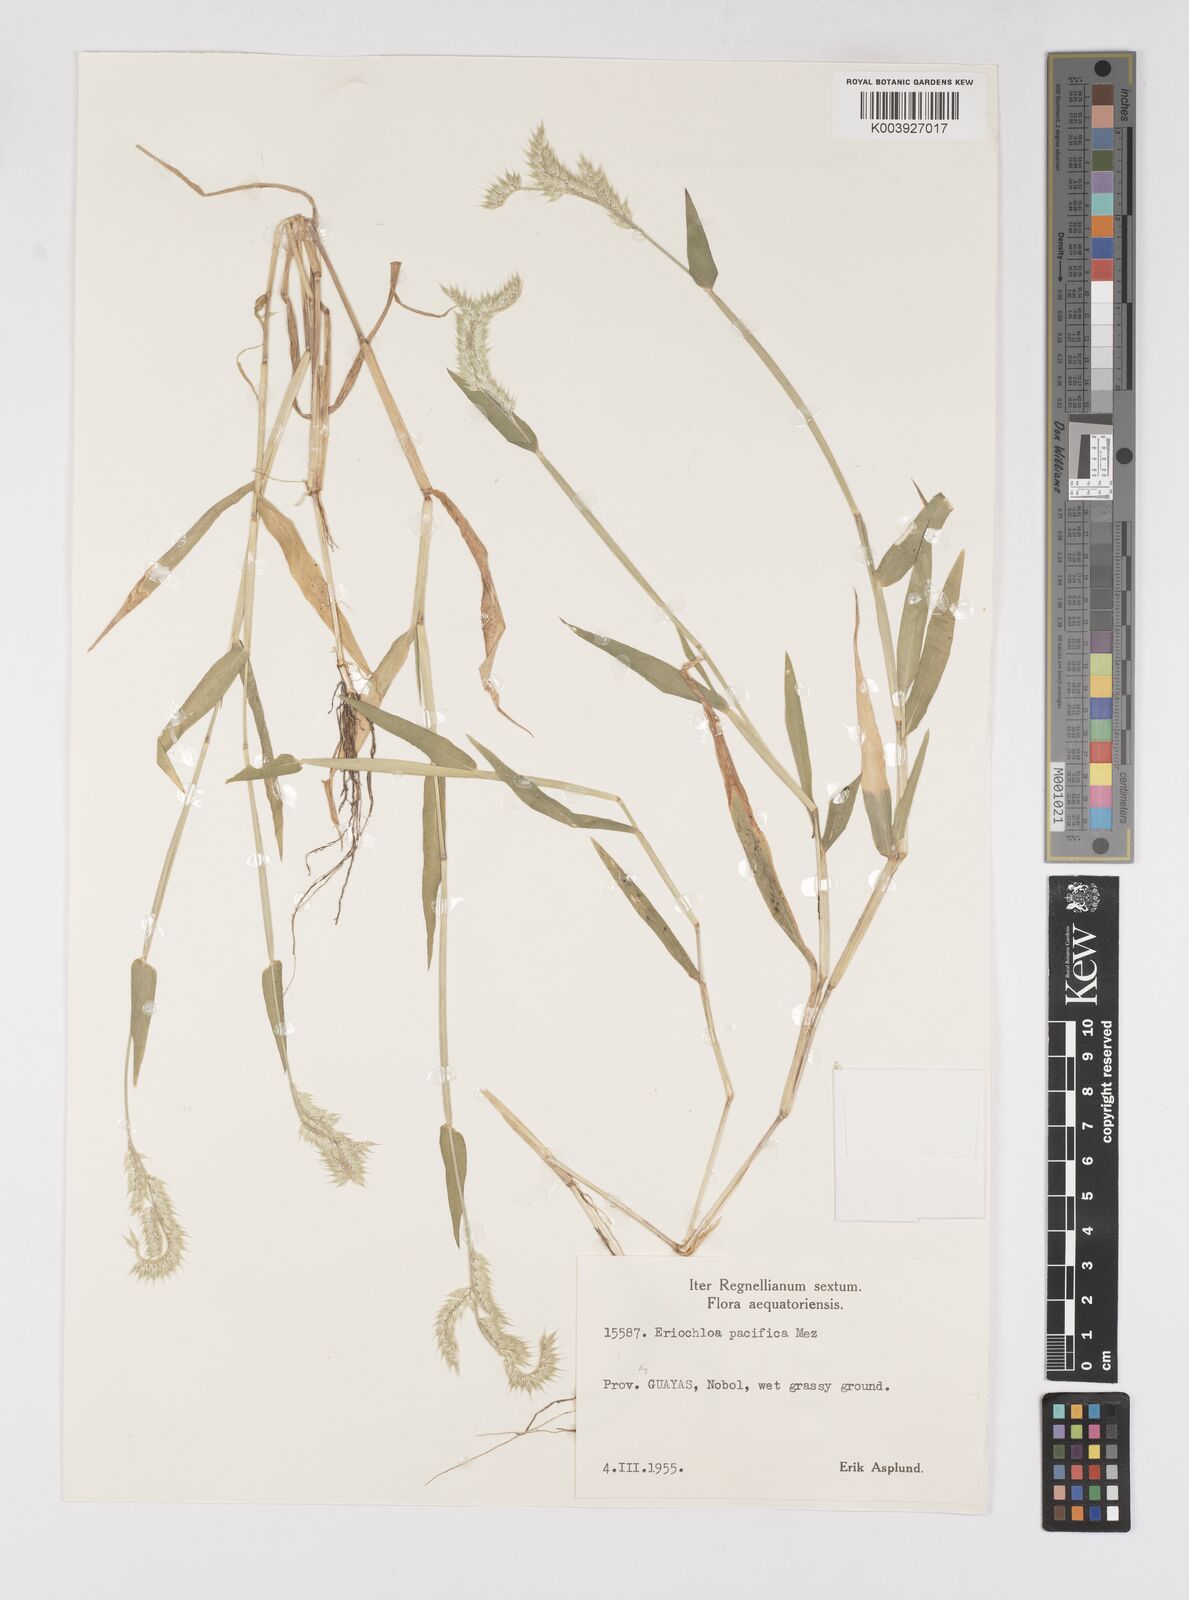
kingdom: Plantae
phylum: Tracheophyta
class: Liliopsida
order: Poales
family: Poaceae
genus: Eriochloa
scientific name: Eriochloa pacifica
